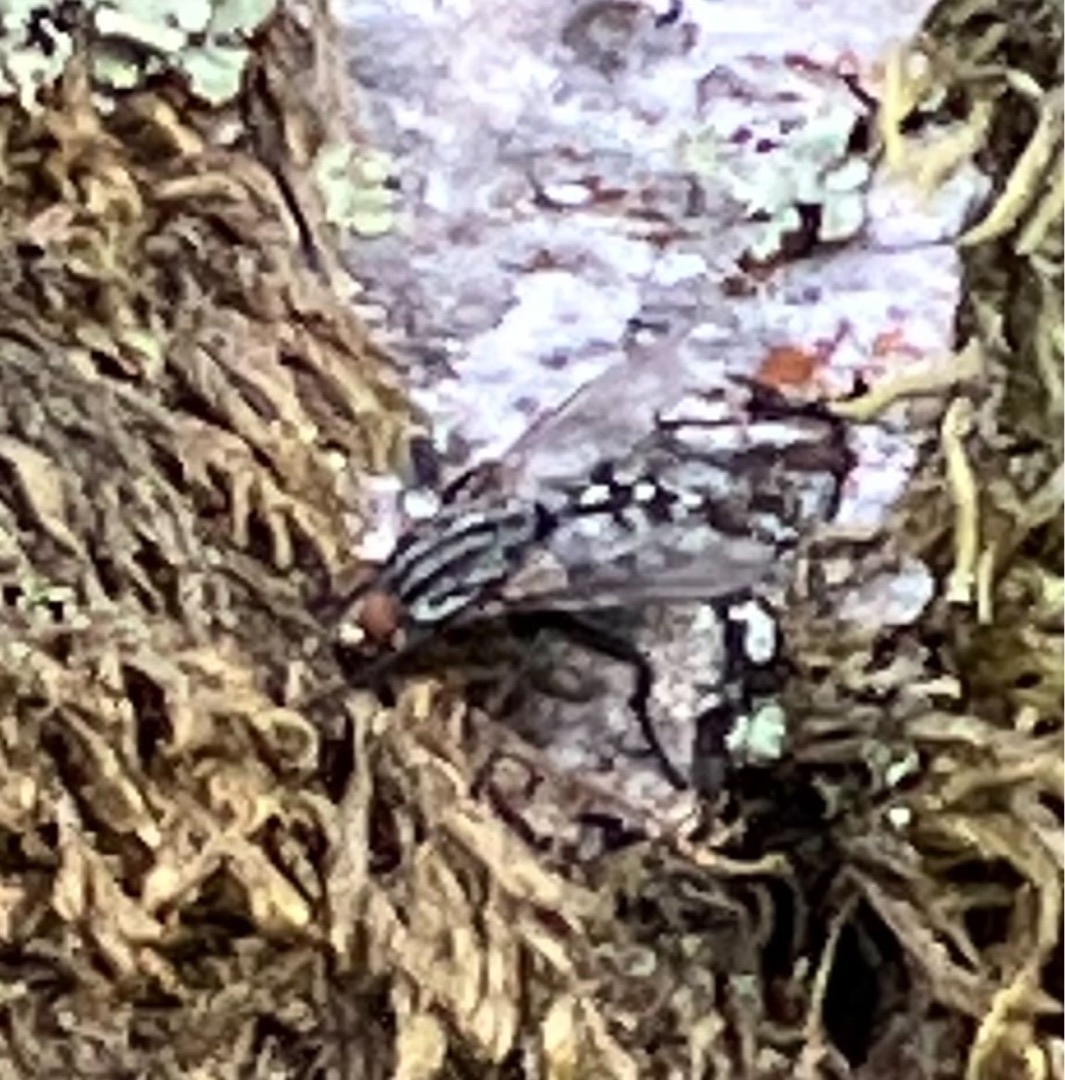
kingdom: Animalia
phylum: Arthropoda
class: Insecta
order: Diptera
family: Sarcophagidae
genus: Sarcophaga
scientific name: Sarcophaga
